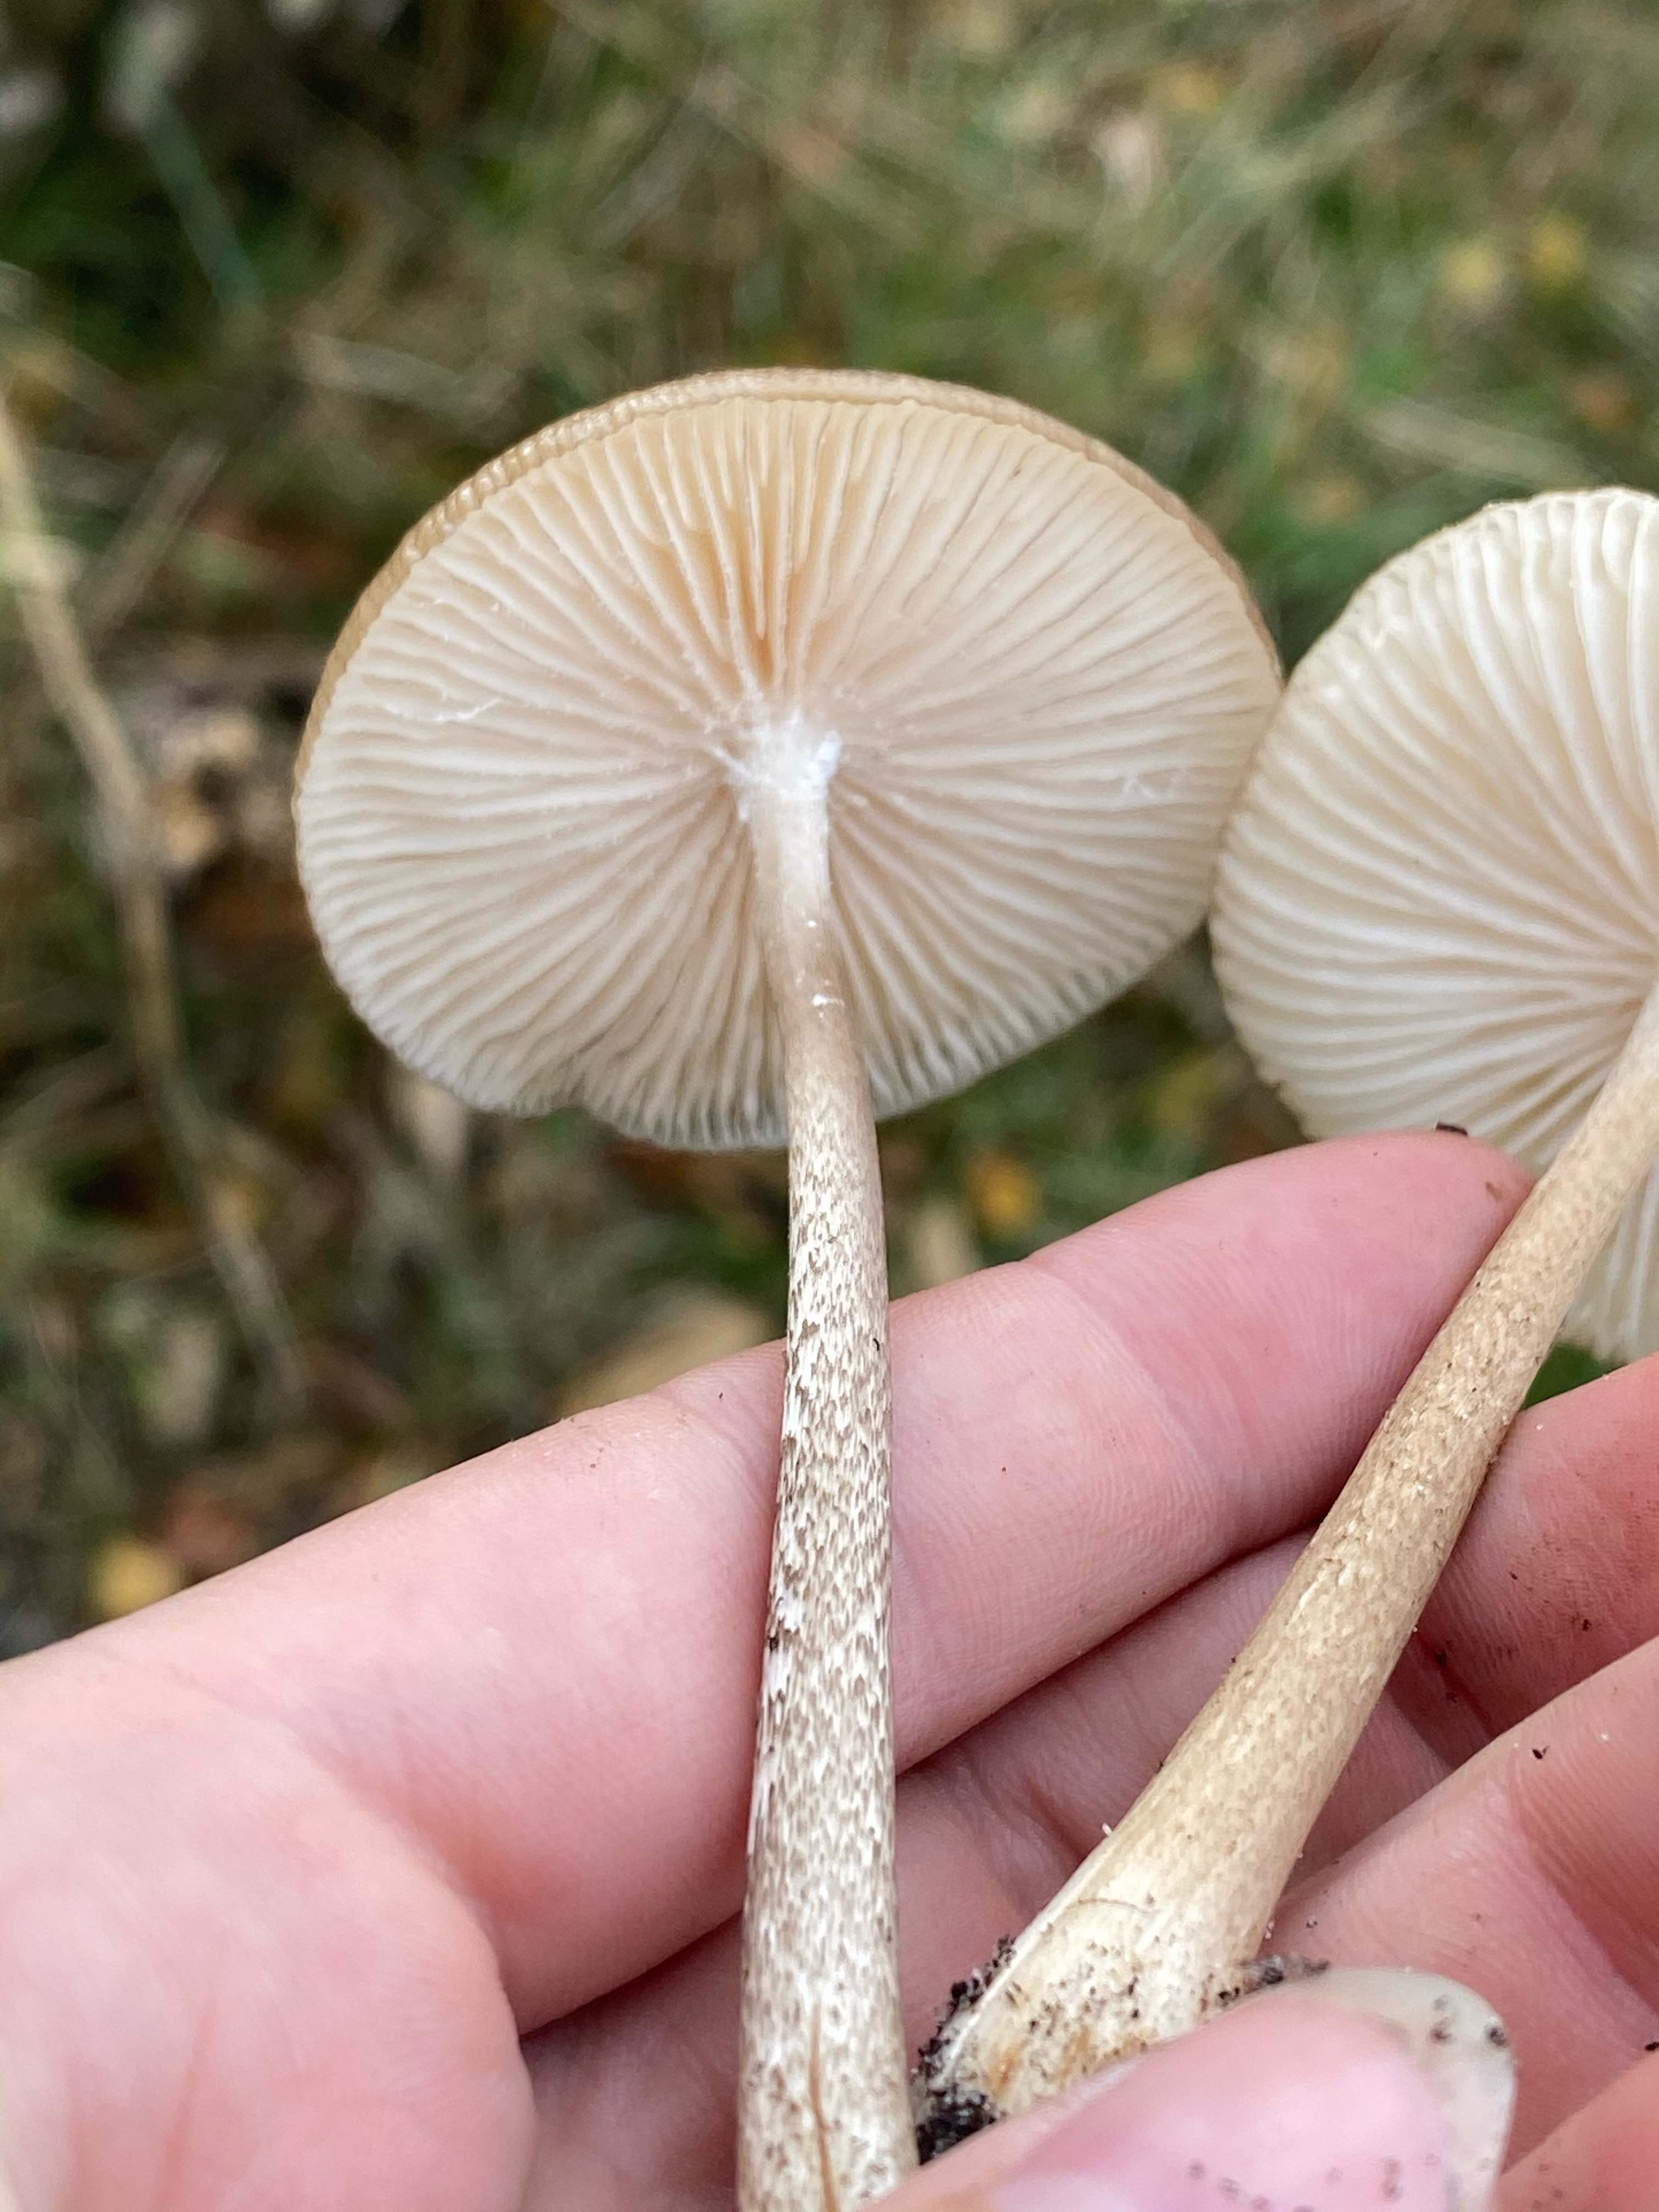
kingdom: Fungi
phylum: Basidiomycota
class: Agaricomycetes
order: Agaricales
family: Physalacriaceae
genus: Hymenopellis
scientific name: Hymenopellis radicata
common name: almindelig pælerodshat
